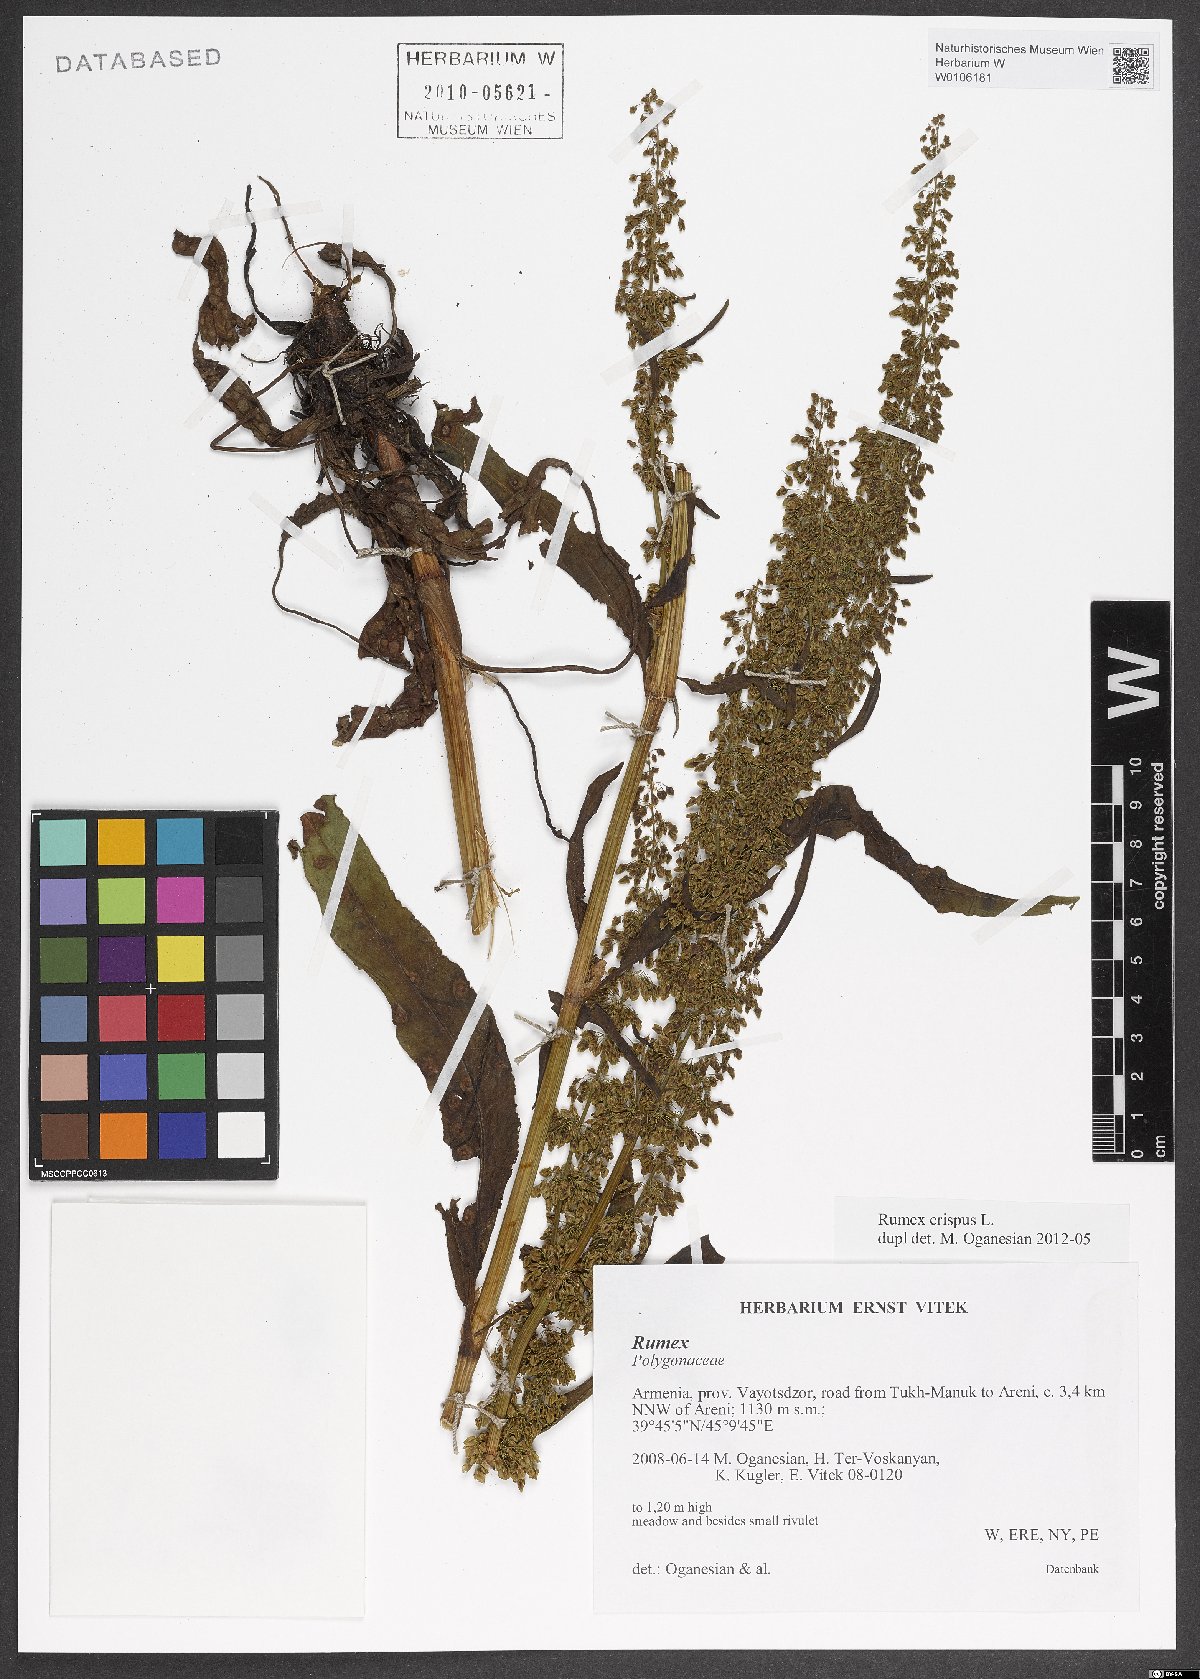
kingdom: Plantae
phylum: Tracheophyta
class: Magnoliopsida
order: Caryophyllales
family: Polygonaceae
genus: Rumex
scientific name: Rumex crispus
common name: Curled dock
